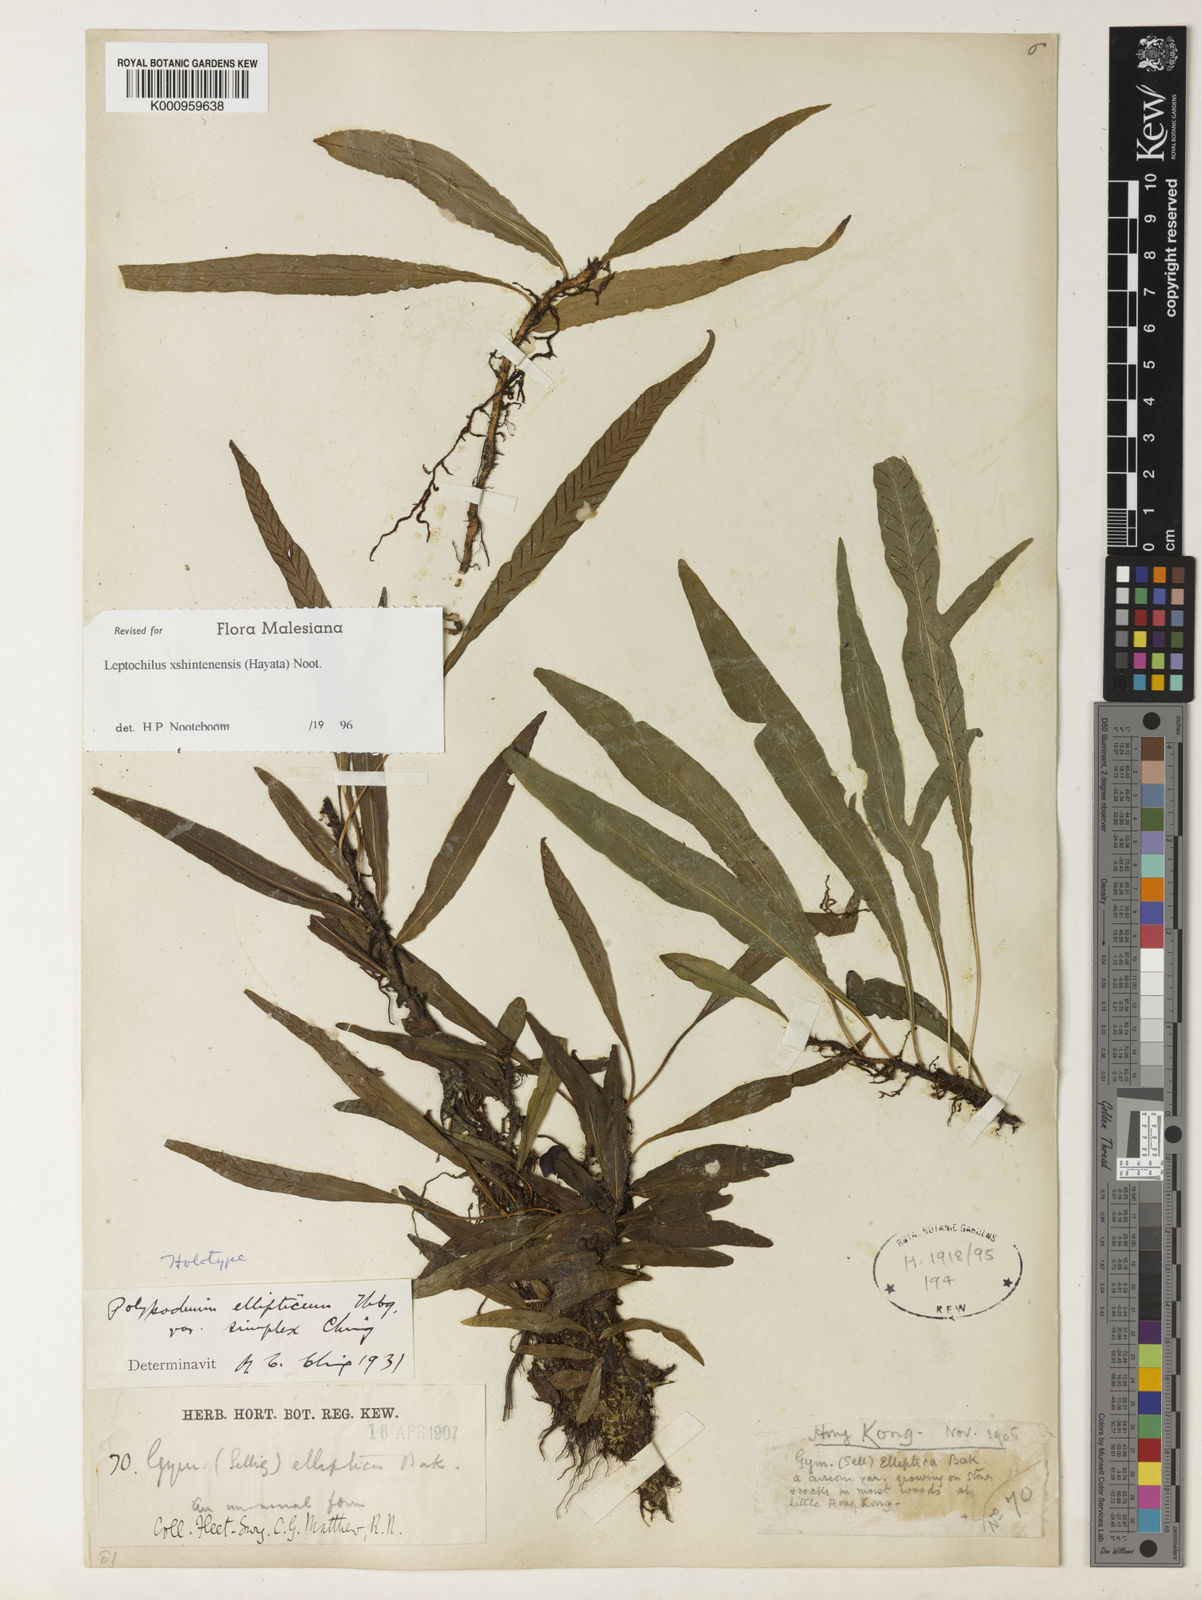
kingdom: Plantae
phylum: Tracheophyta
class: Polypodiopsida
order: Polypodiales
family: Polypodiaceae
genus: Leptochilus
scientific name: Leptochilus
